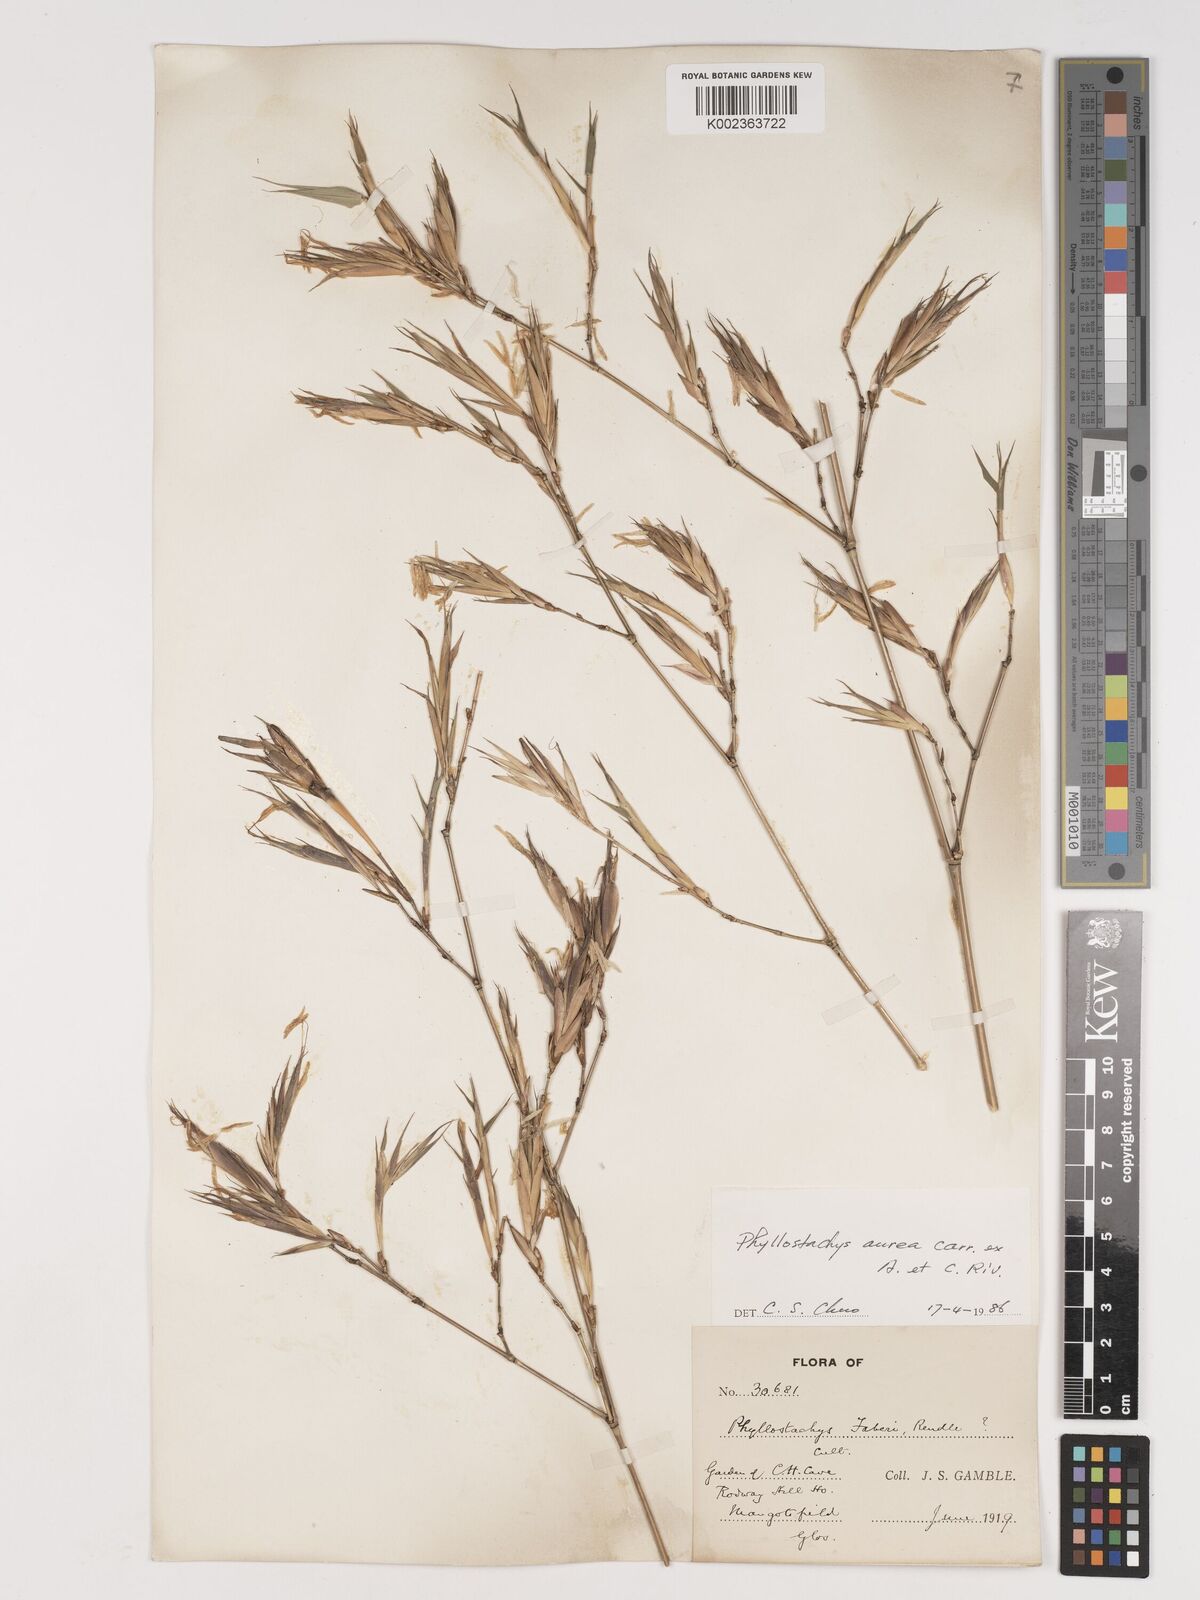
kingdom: Plantae
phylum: Tracheophyta
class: Liliopsida
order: Poales
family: Poaceae
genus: Phyllostachys
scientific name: Phyllostachys aurea
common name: Golden bamboo
